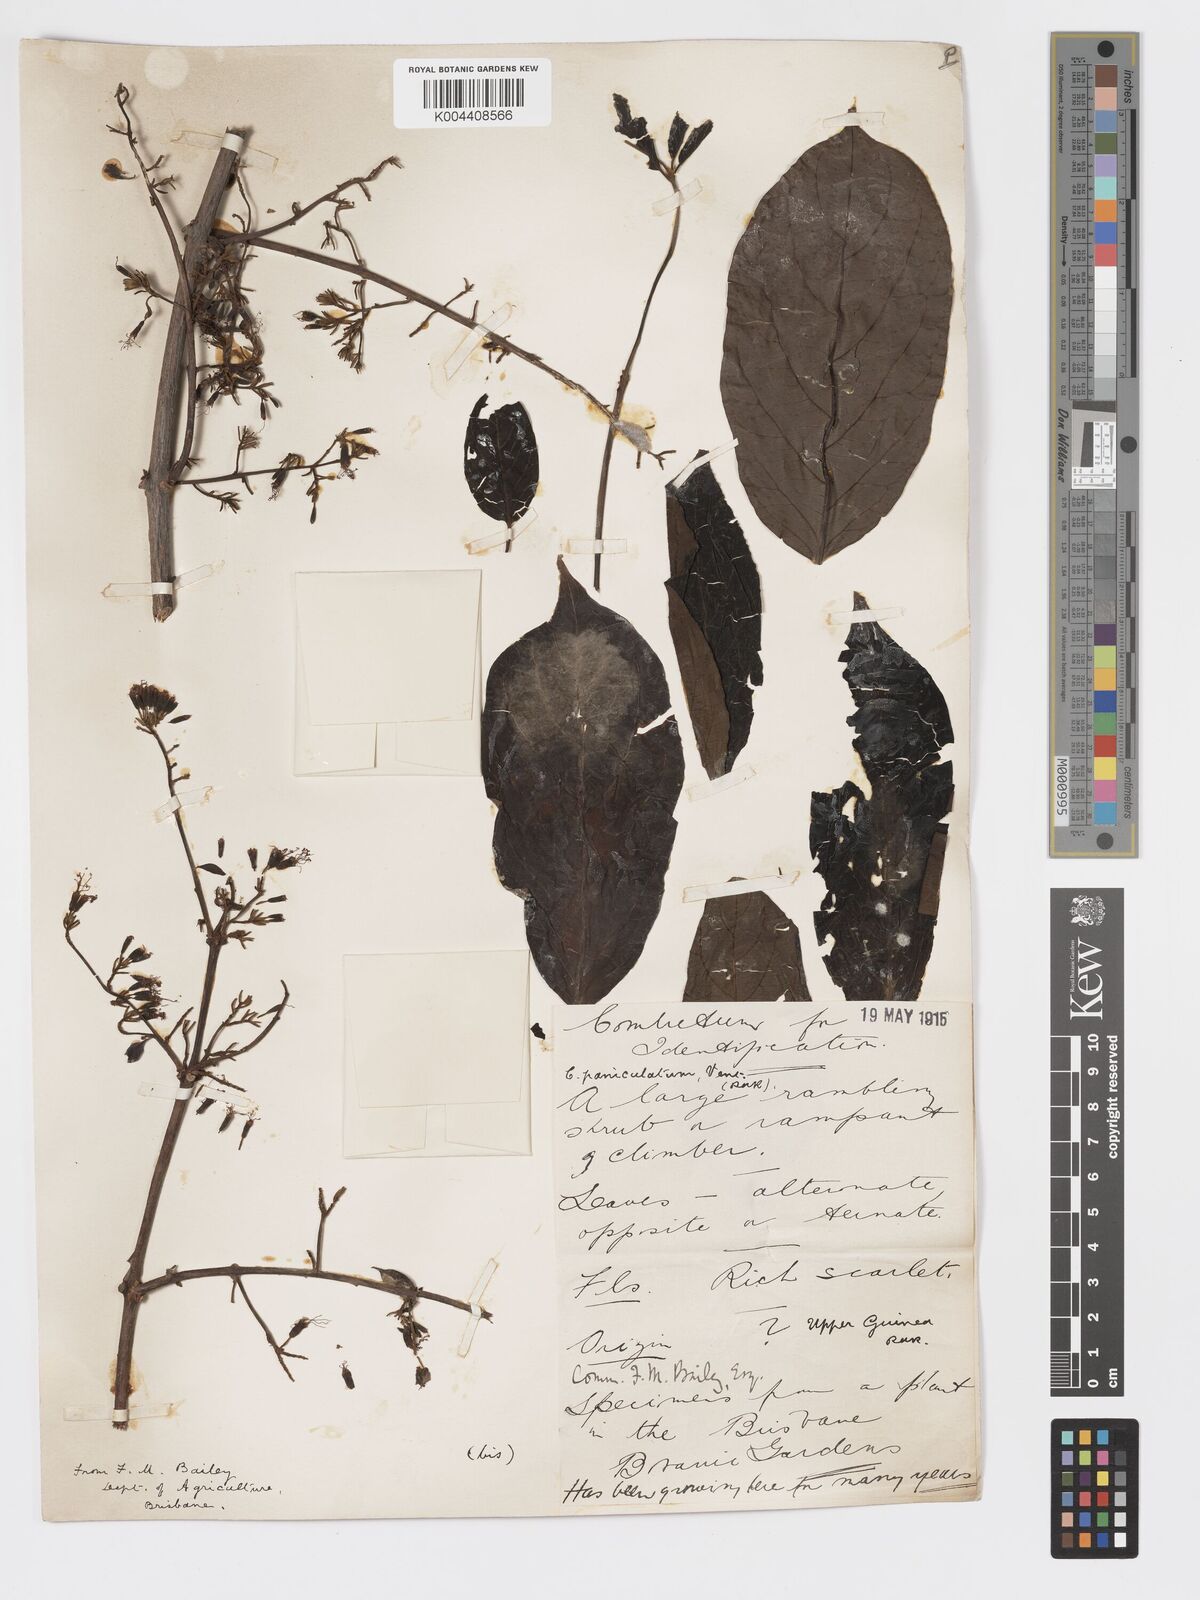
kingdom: Plantae
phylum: Tracheophyta
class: Magnoliopsida
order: Myrtales
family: Combretaceae
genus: Combretum
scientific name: Combretum paniculatum
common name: Fire vine
